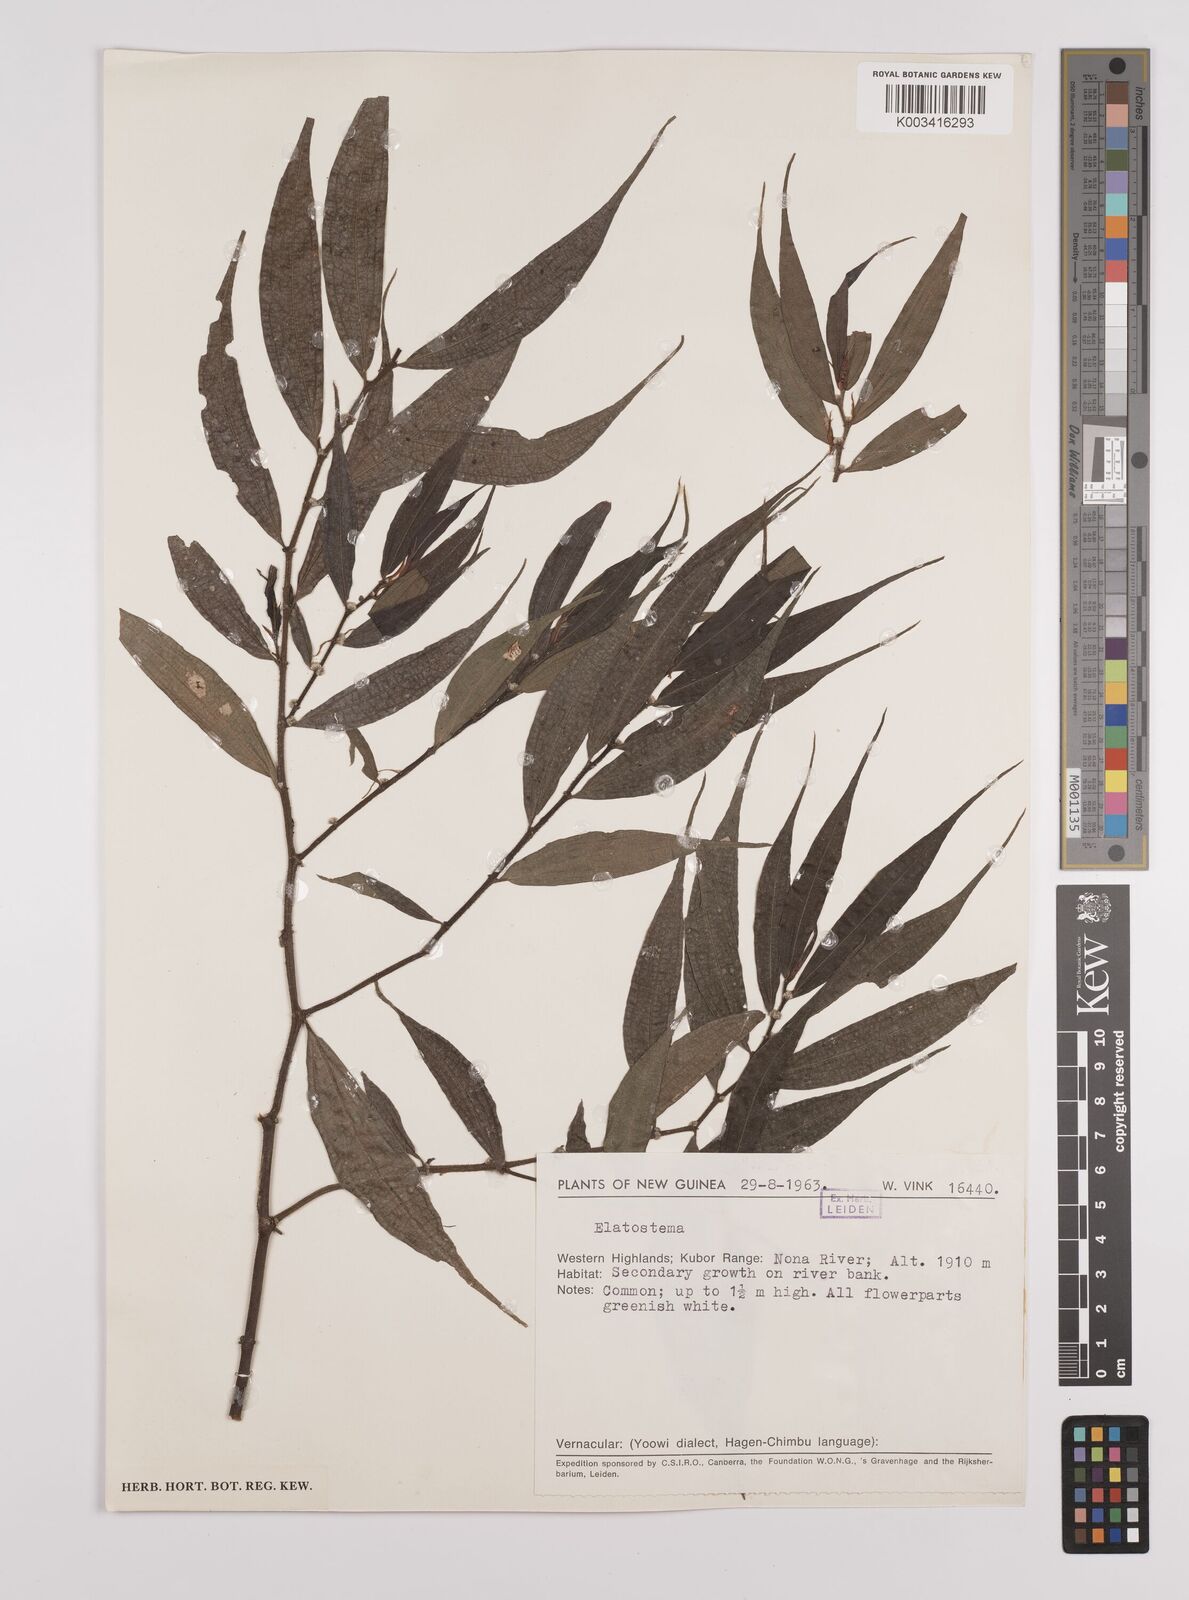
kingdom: Plantae
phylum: Tracheophyta
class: Magnoliopsida
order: Rosales
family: Urticaceae
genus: Elatostema
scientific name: Elatostema integrifolium
